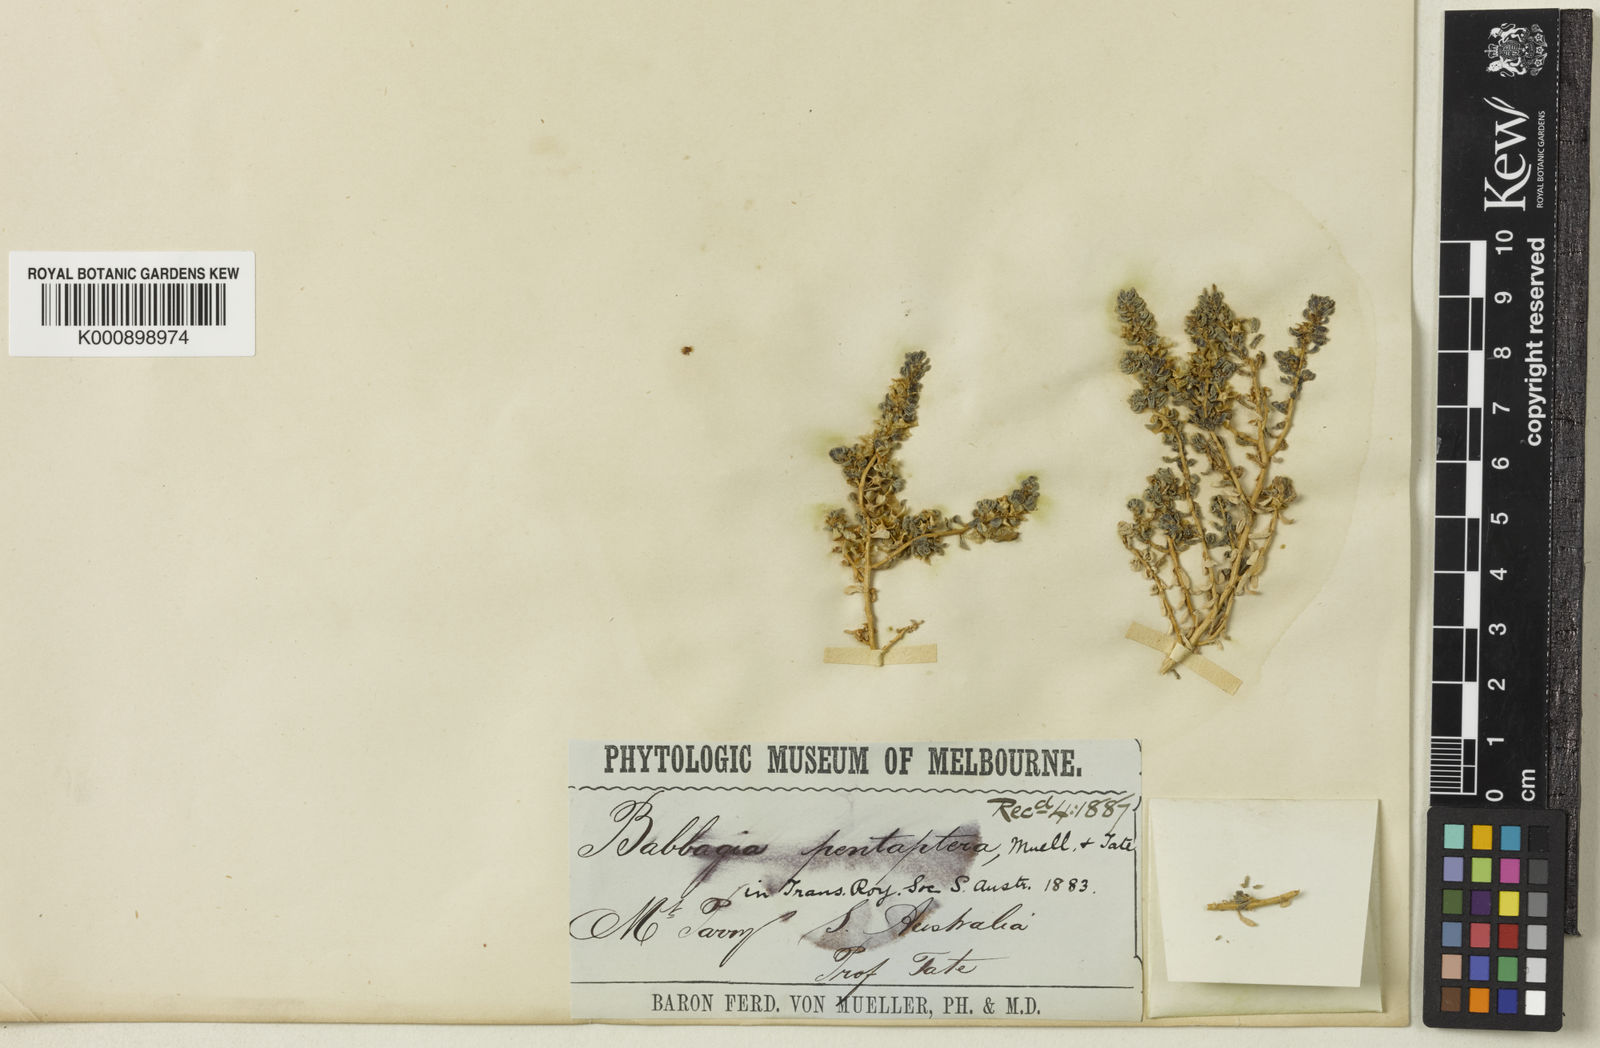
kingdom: Plantae
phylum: Tracheophyta
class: Magnoliopsida
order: Caryophyllales
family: Amaranthaceae
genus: Osteocarpum
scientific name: Osteocarpum pentapterum
